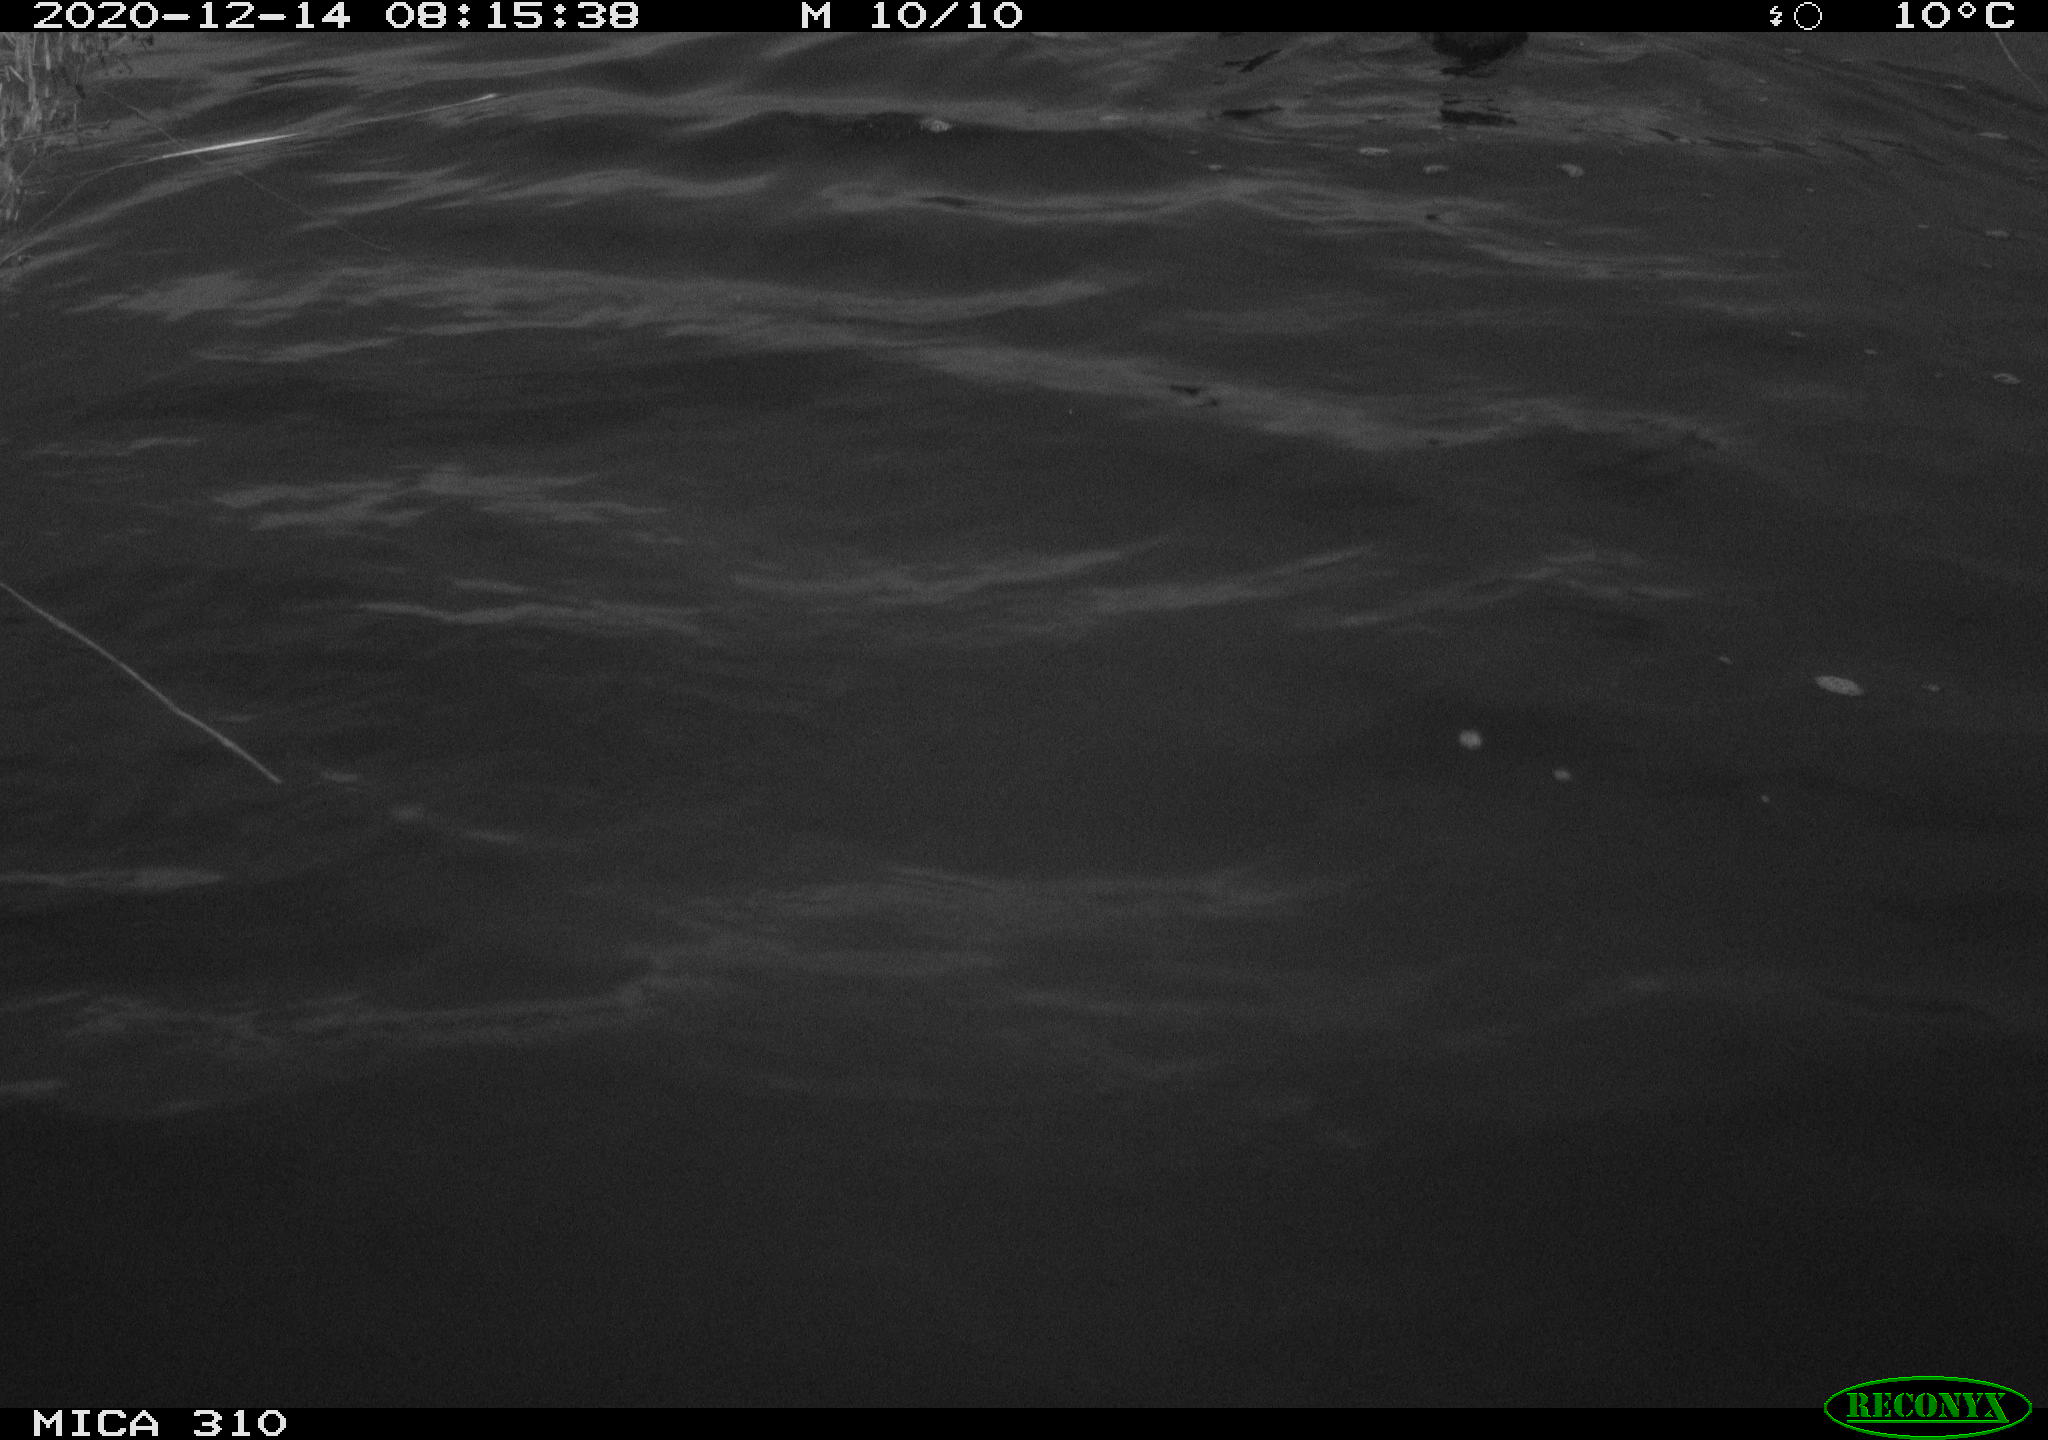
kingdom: Animalia
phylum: Chordata
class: Aves
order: Gruiformes
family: Rallidae
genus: Fulica
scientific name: Fulica atra
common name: Eurasian coot
